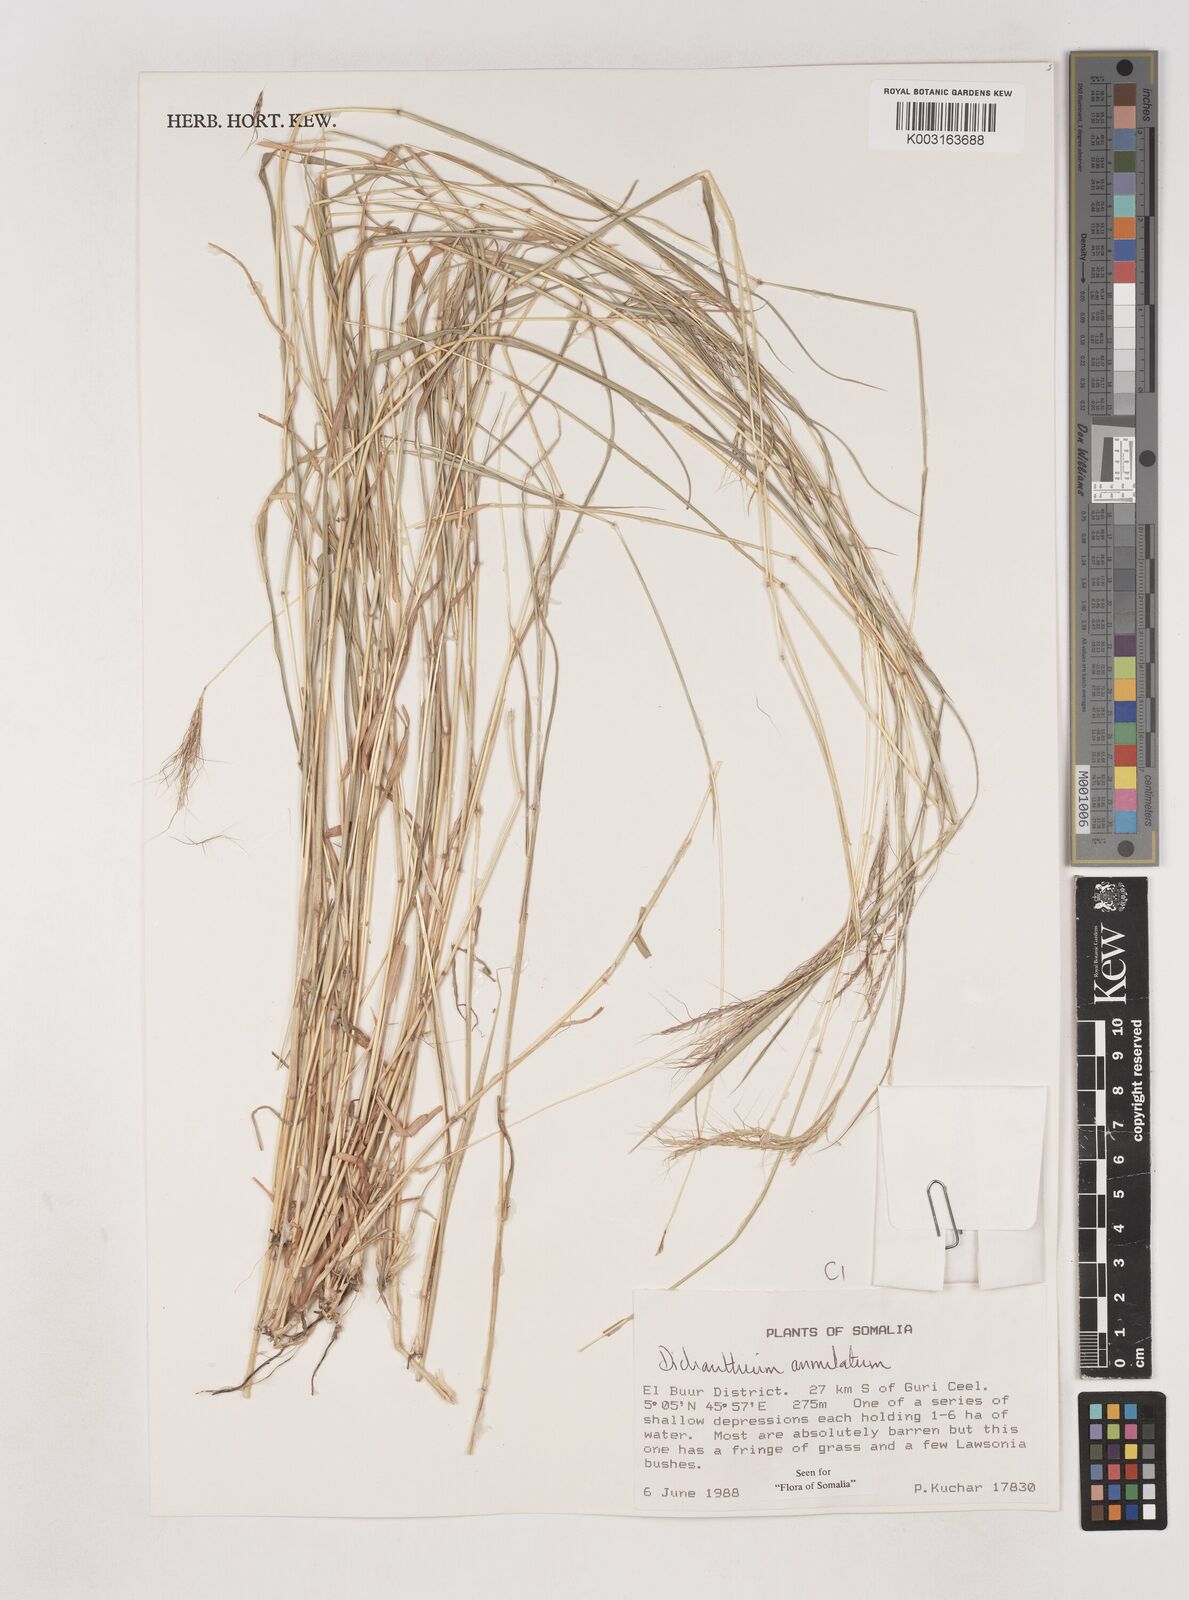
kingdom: Plantae
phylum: Tracheophyta
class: Liliopsida
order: Poales
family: Poaceae
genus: Dichanthium
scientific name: Dichanthium annulatum
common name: Kleberg's bluestem
